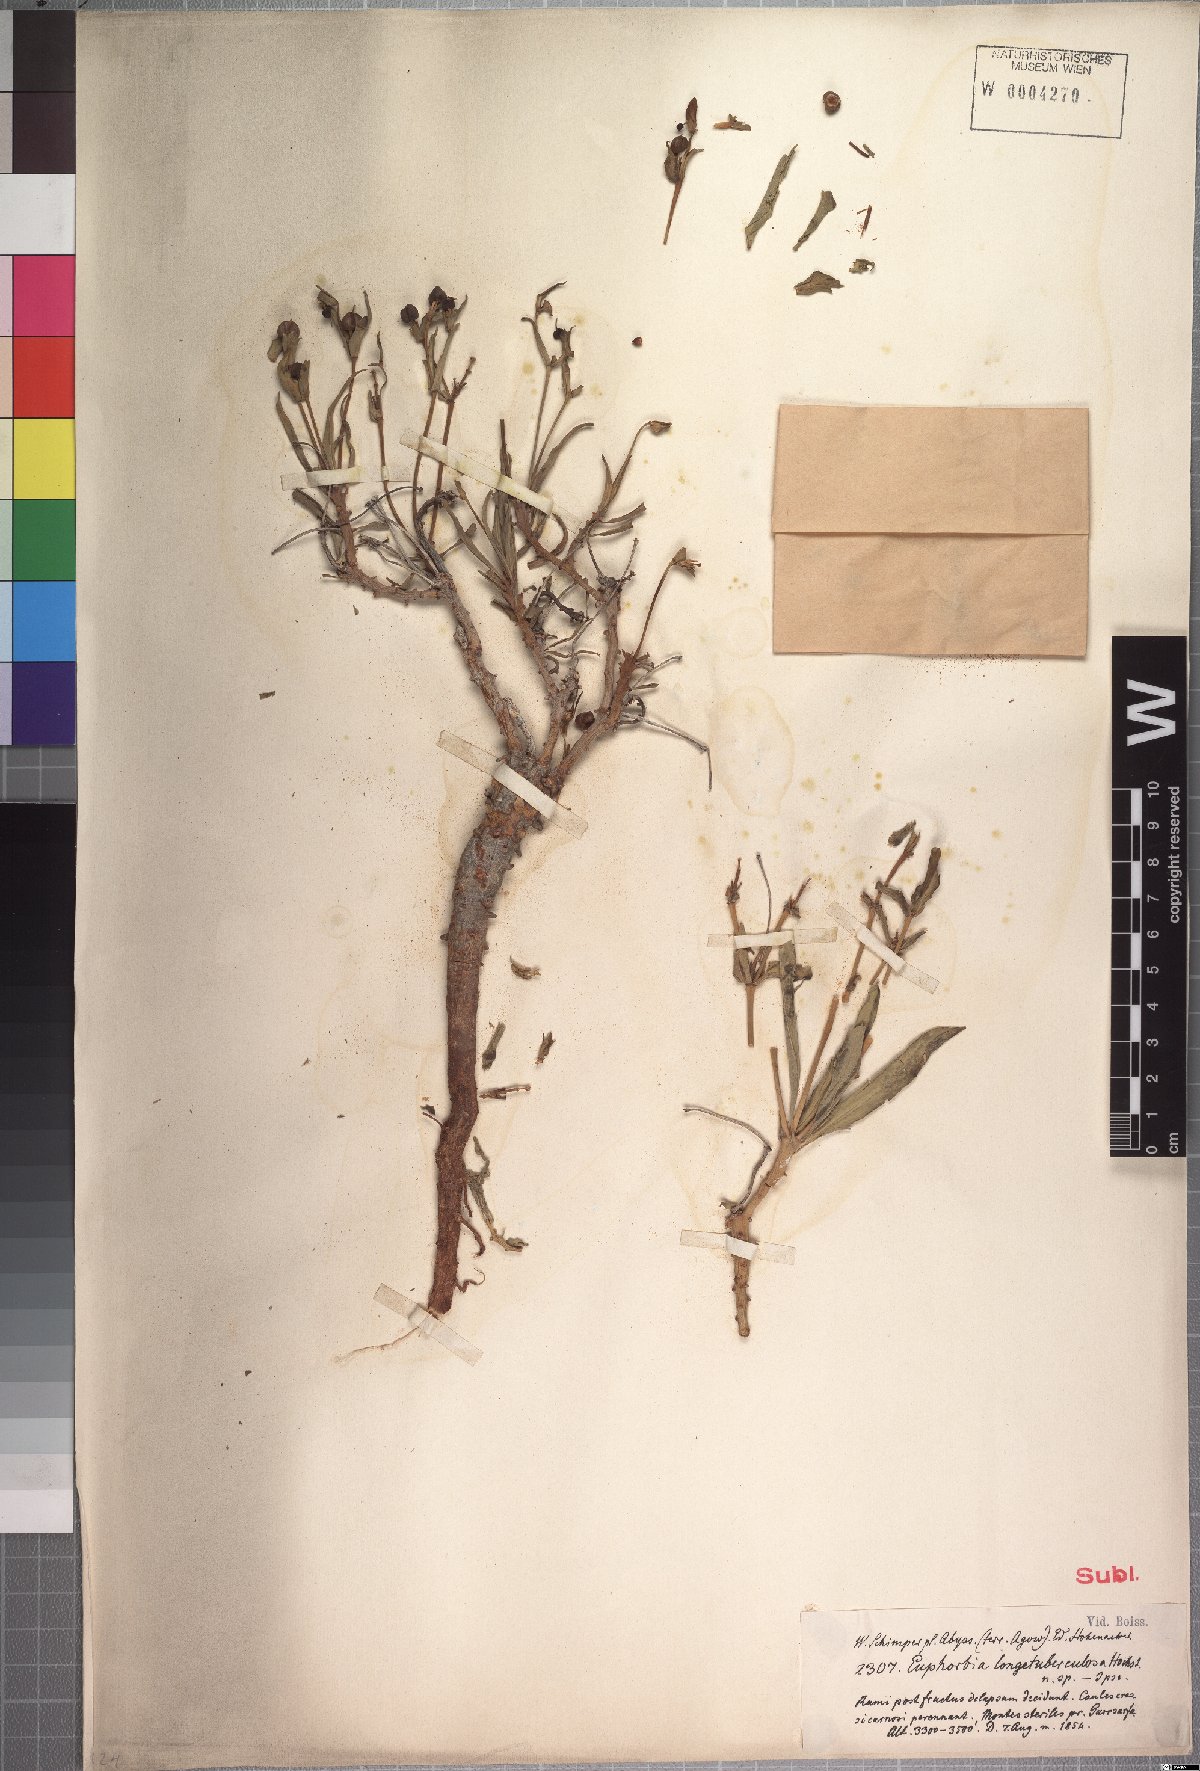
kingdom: Plantae
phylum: Tracheophyta
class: Magnoliopsida
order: Malpighiales
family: Euphorbiaceae
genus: Euphorbia
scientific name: Euphorbia longituberculosa
